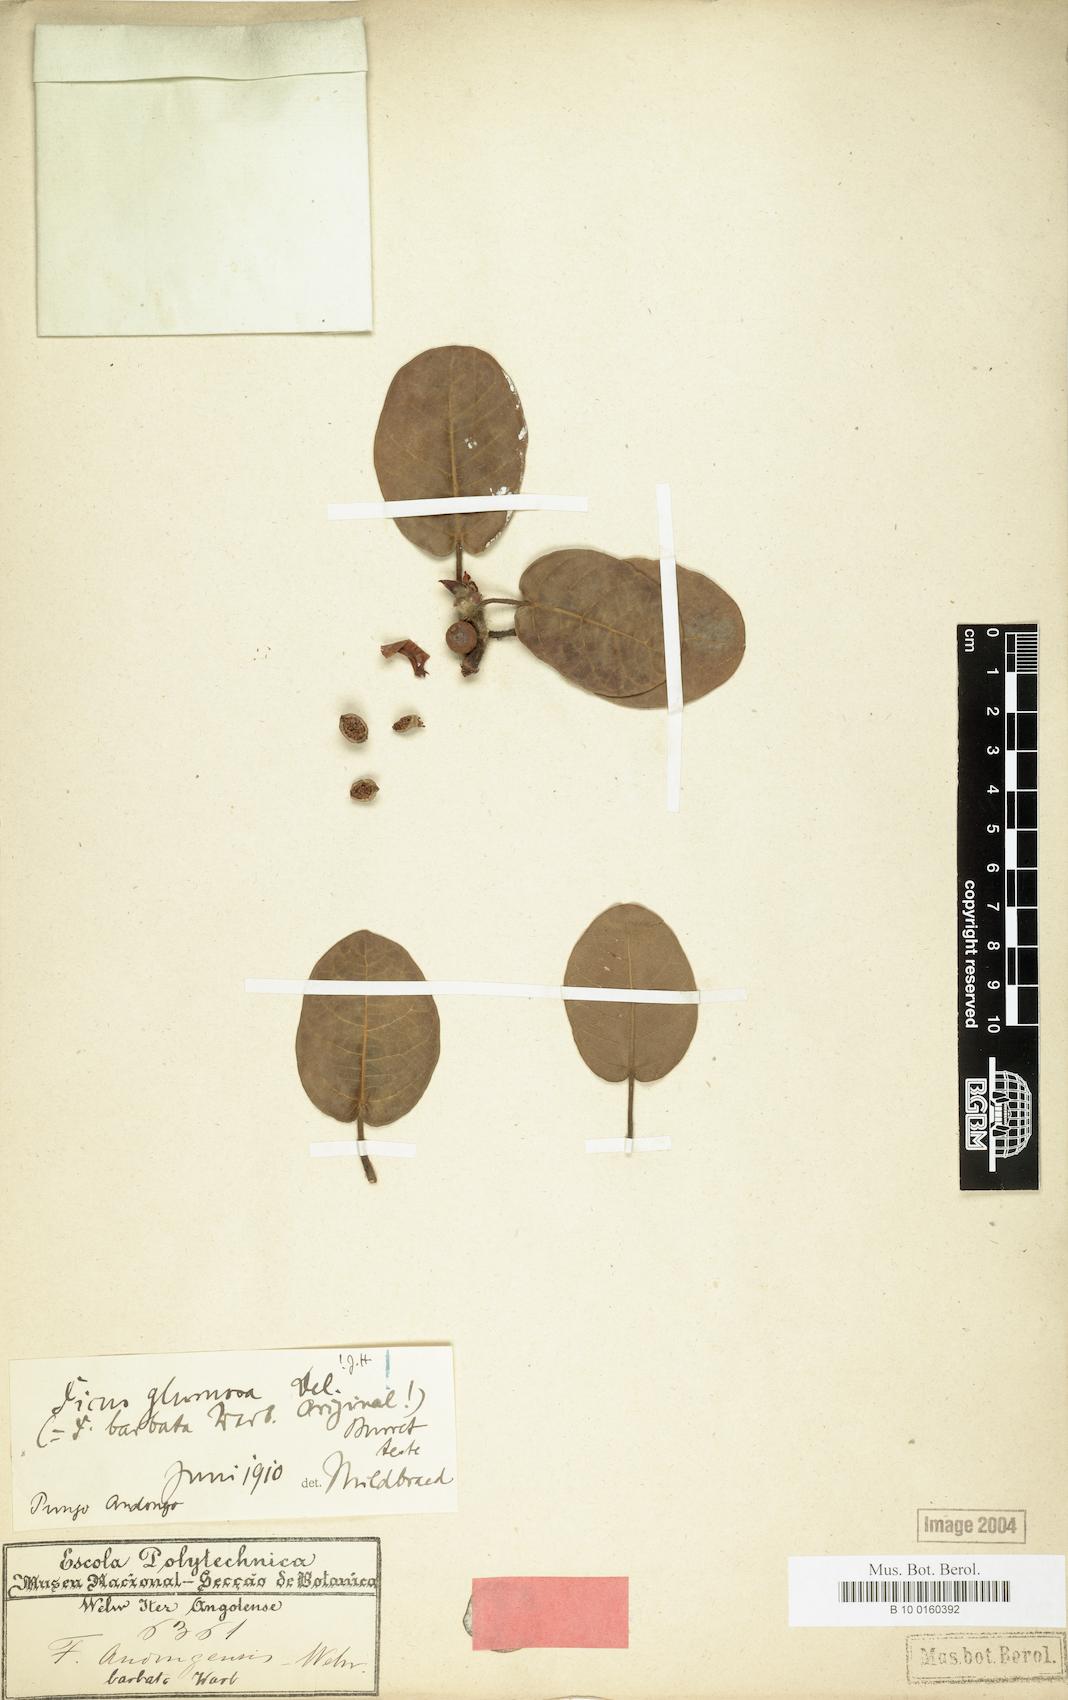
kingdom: Plantae
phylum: Tracheophyta
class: Magnoliopsida
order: Rosales
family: Moraceae
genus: Ficus
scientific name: Ficus glumosa
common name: Hairy rock fig
